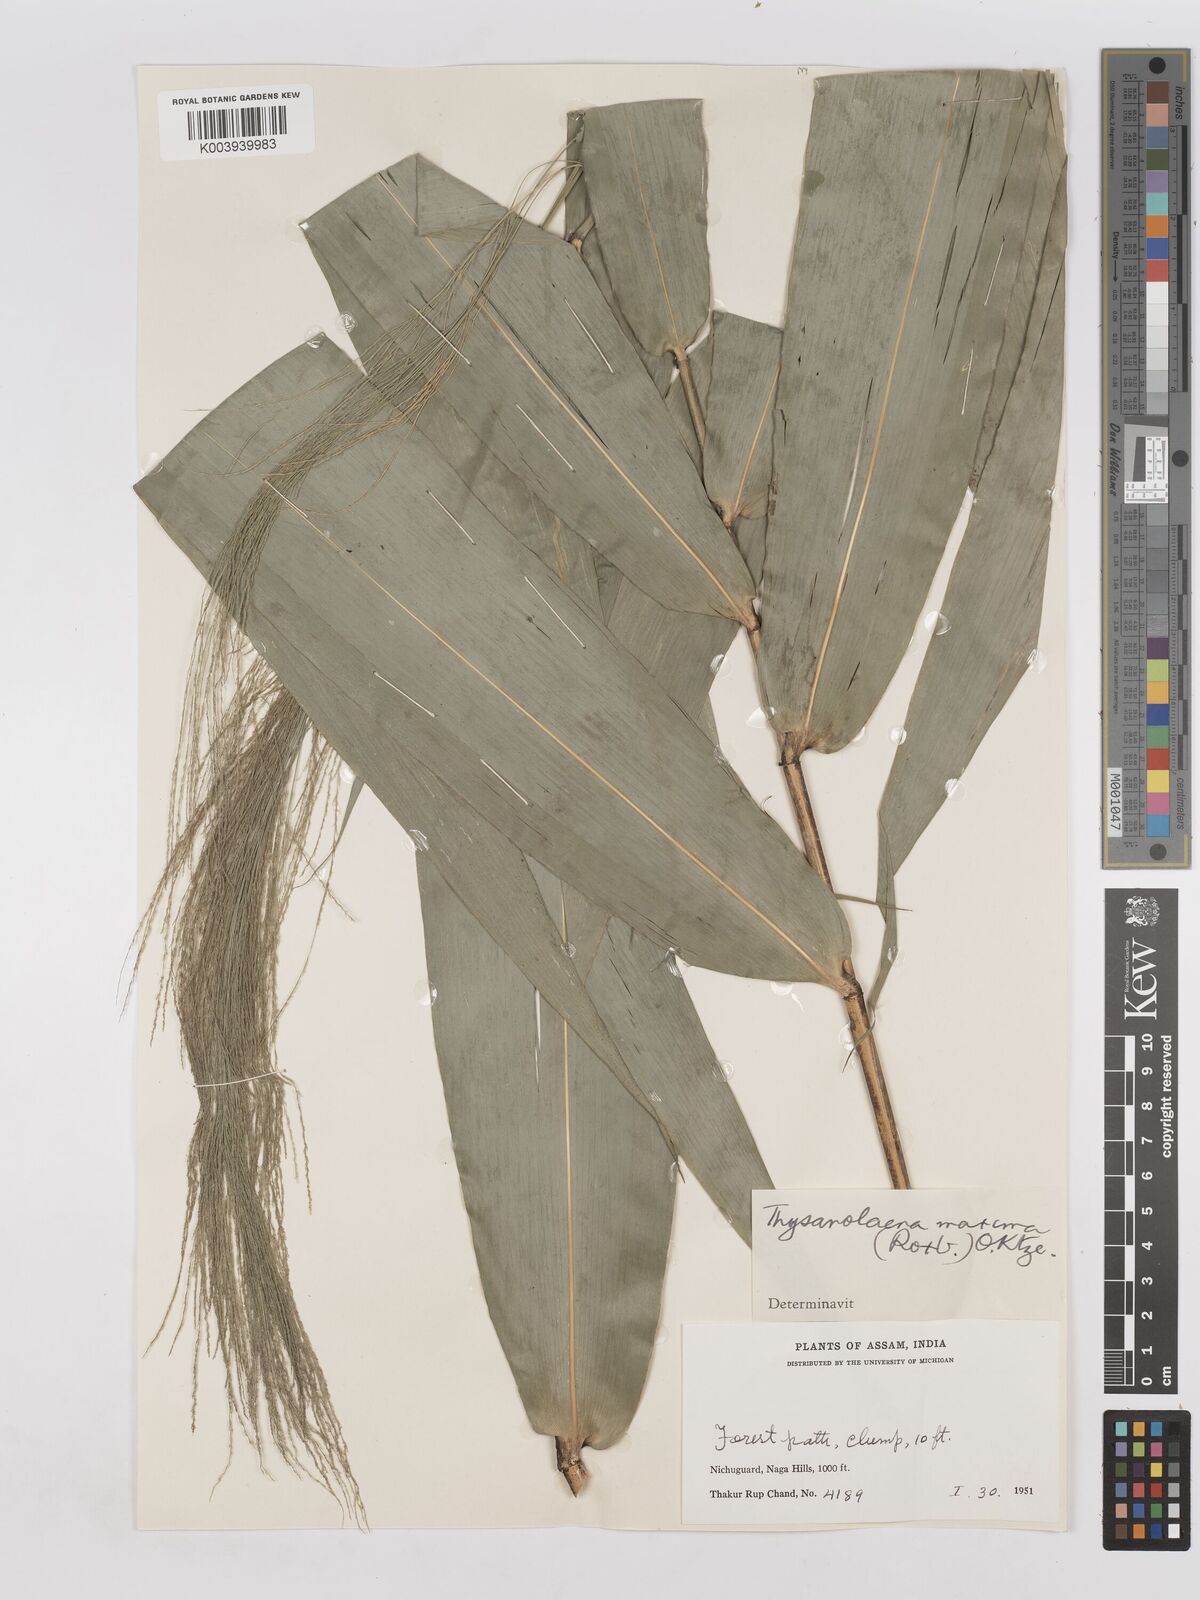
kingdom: Plantae
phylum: Tracheophyta
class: Liliopsida
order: Poales
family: Poaceae
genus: Thysanolaena
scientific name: Thysanolaena latifolia
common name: Tiger grass
